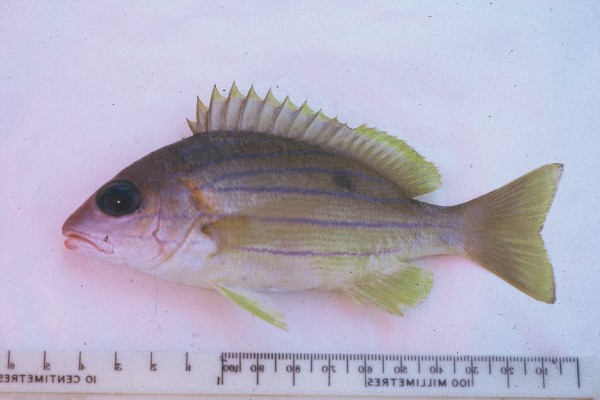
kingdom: Animalia
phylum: Chordata
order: Perciformes
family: Lutjanidae
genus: Lutjanus
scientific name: Lutjanus notatus
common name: Bluestriped snapper
